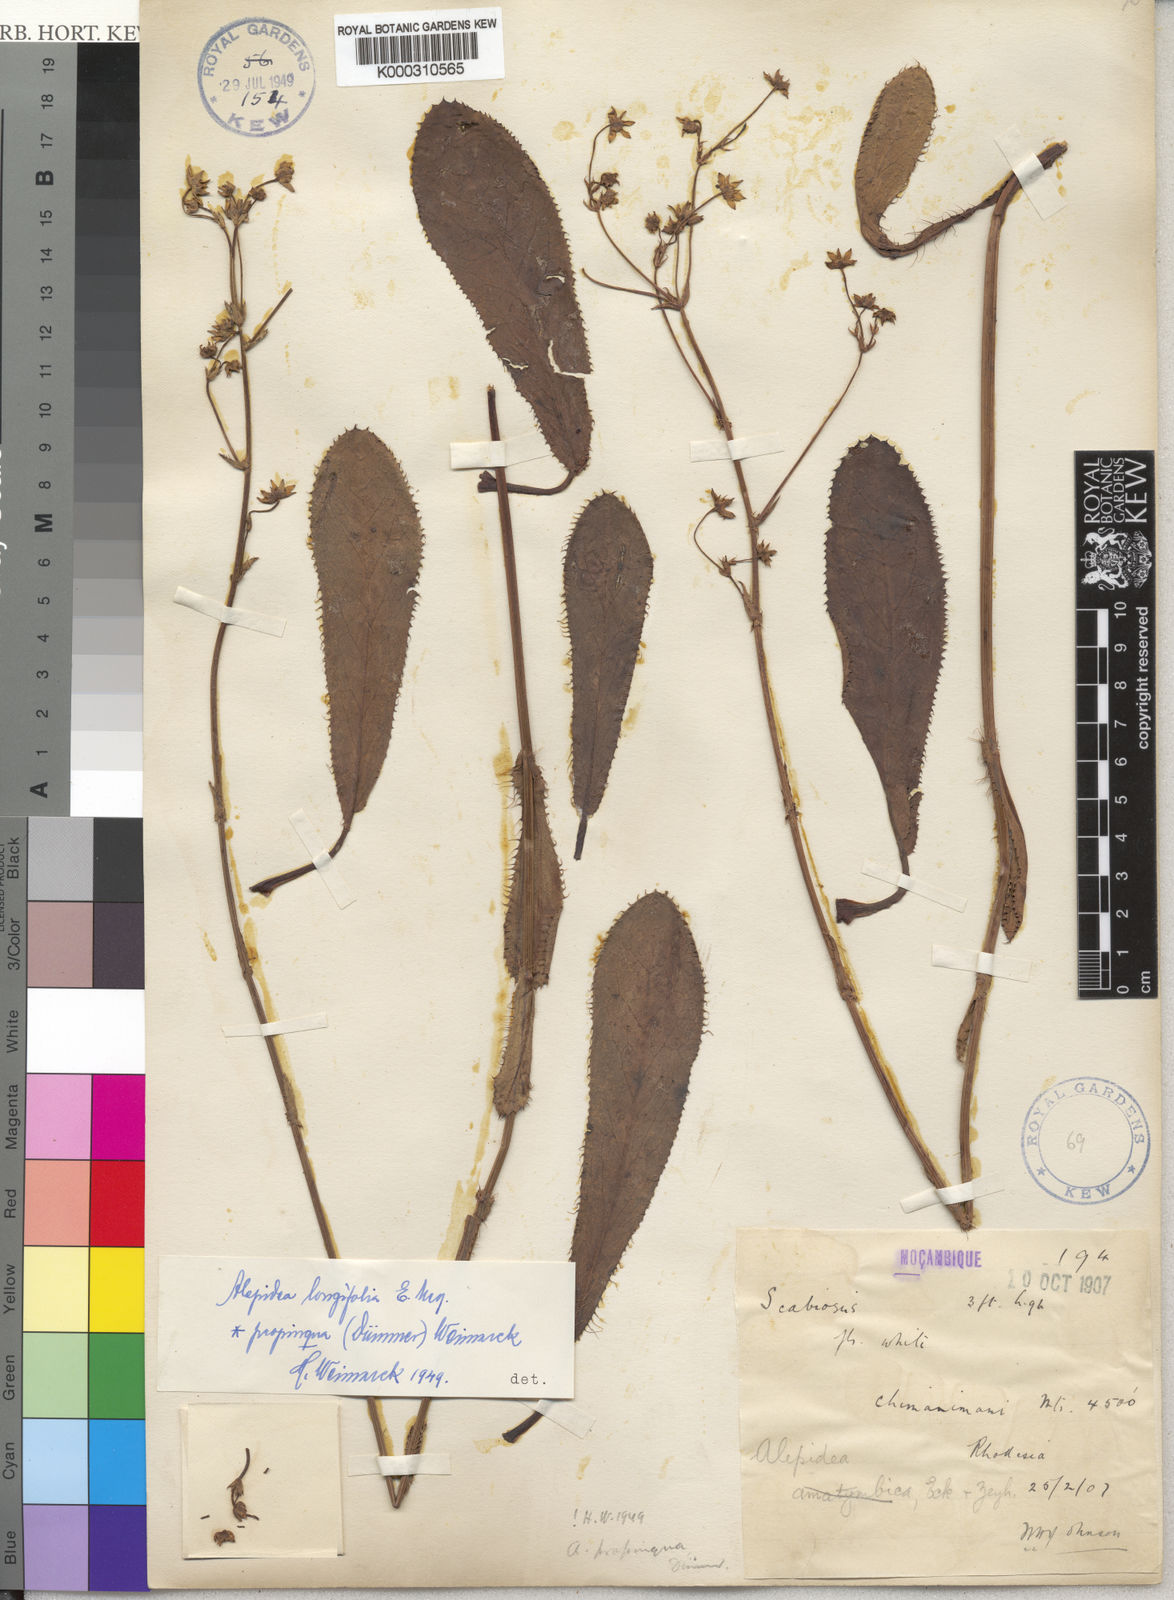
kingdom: Plantae
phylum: Tracheophyta
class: Magnoliopsida
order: Apiales
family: Apiaceae
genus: Alepidea
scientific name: Alepidea
